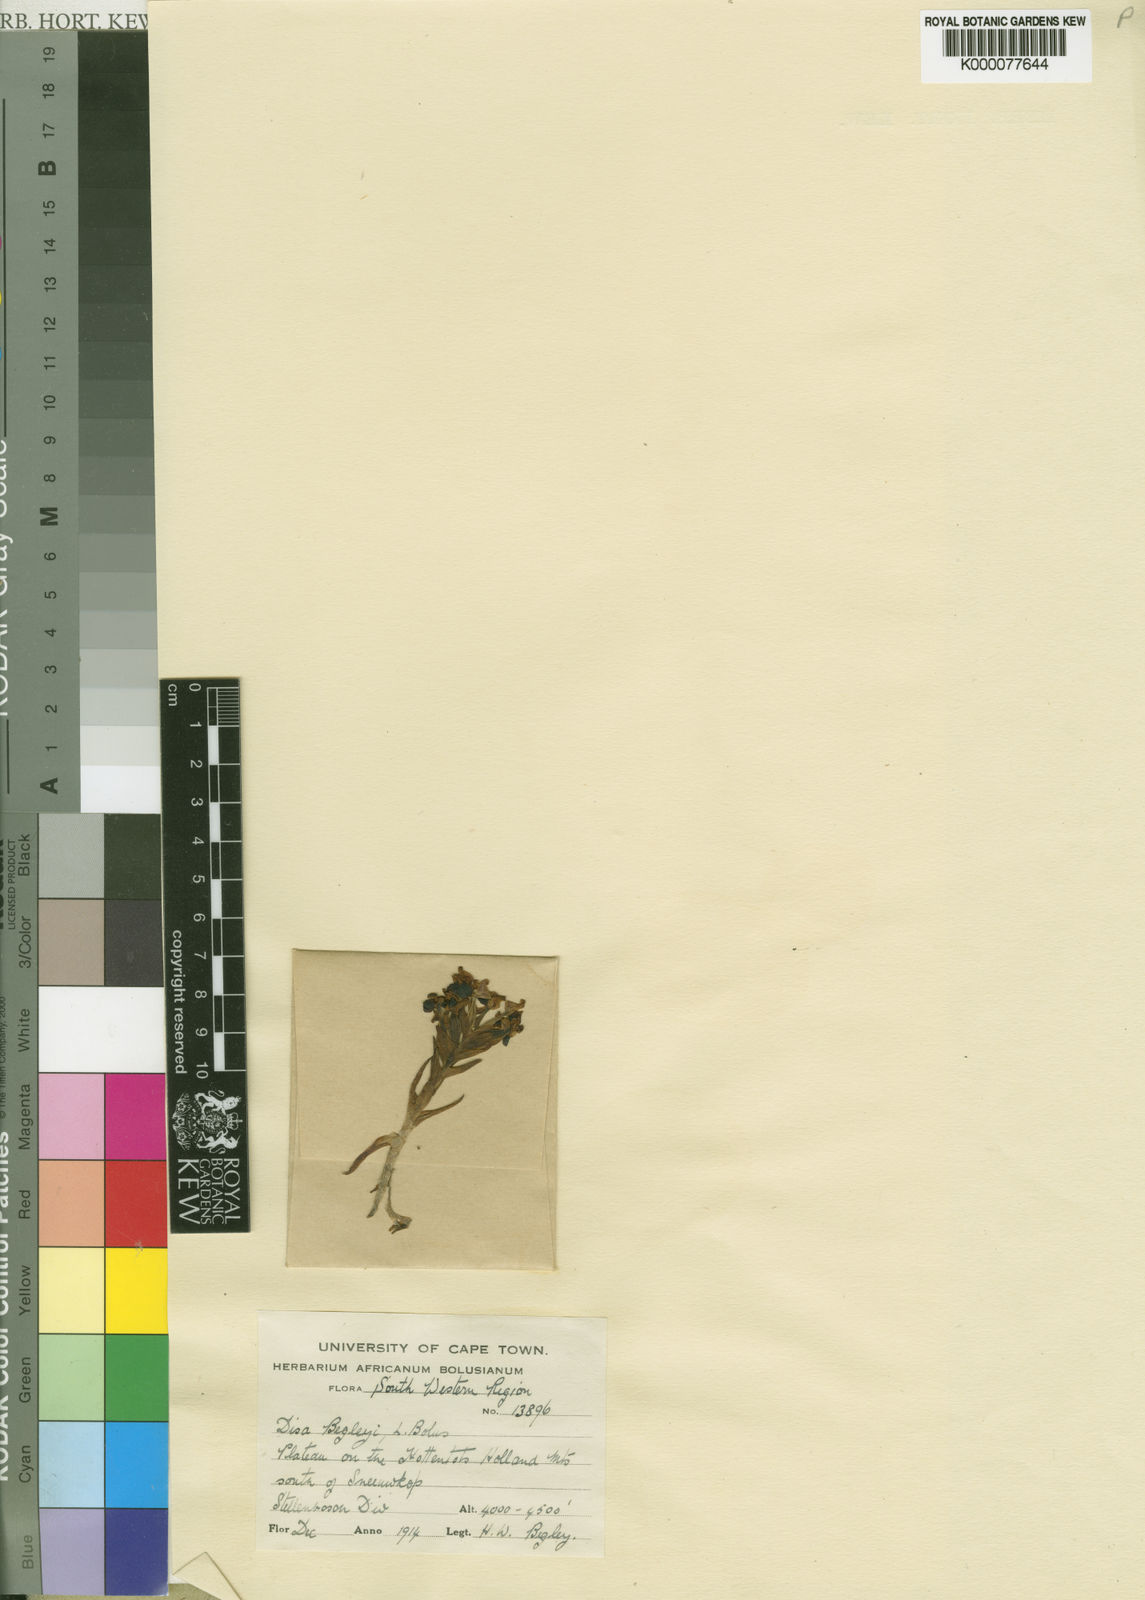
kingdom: Plantae
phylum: Tracheophyta
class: Liliopsida
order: Asparagales
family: Orchidaceae
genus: Disa
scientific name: Disa begleyi
